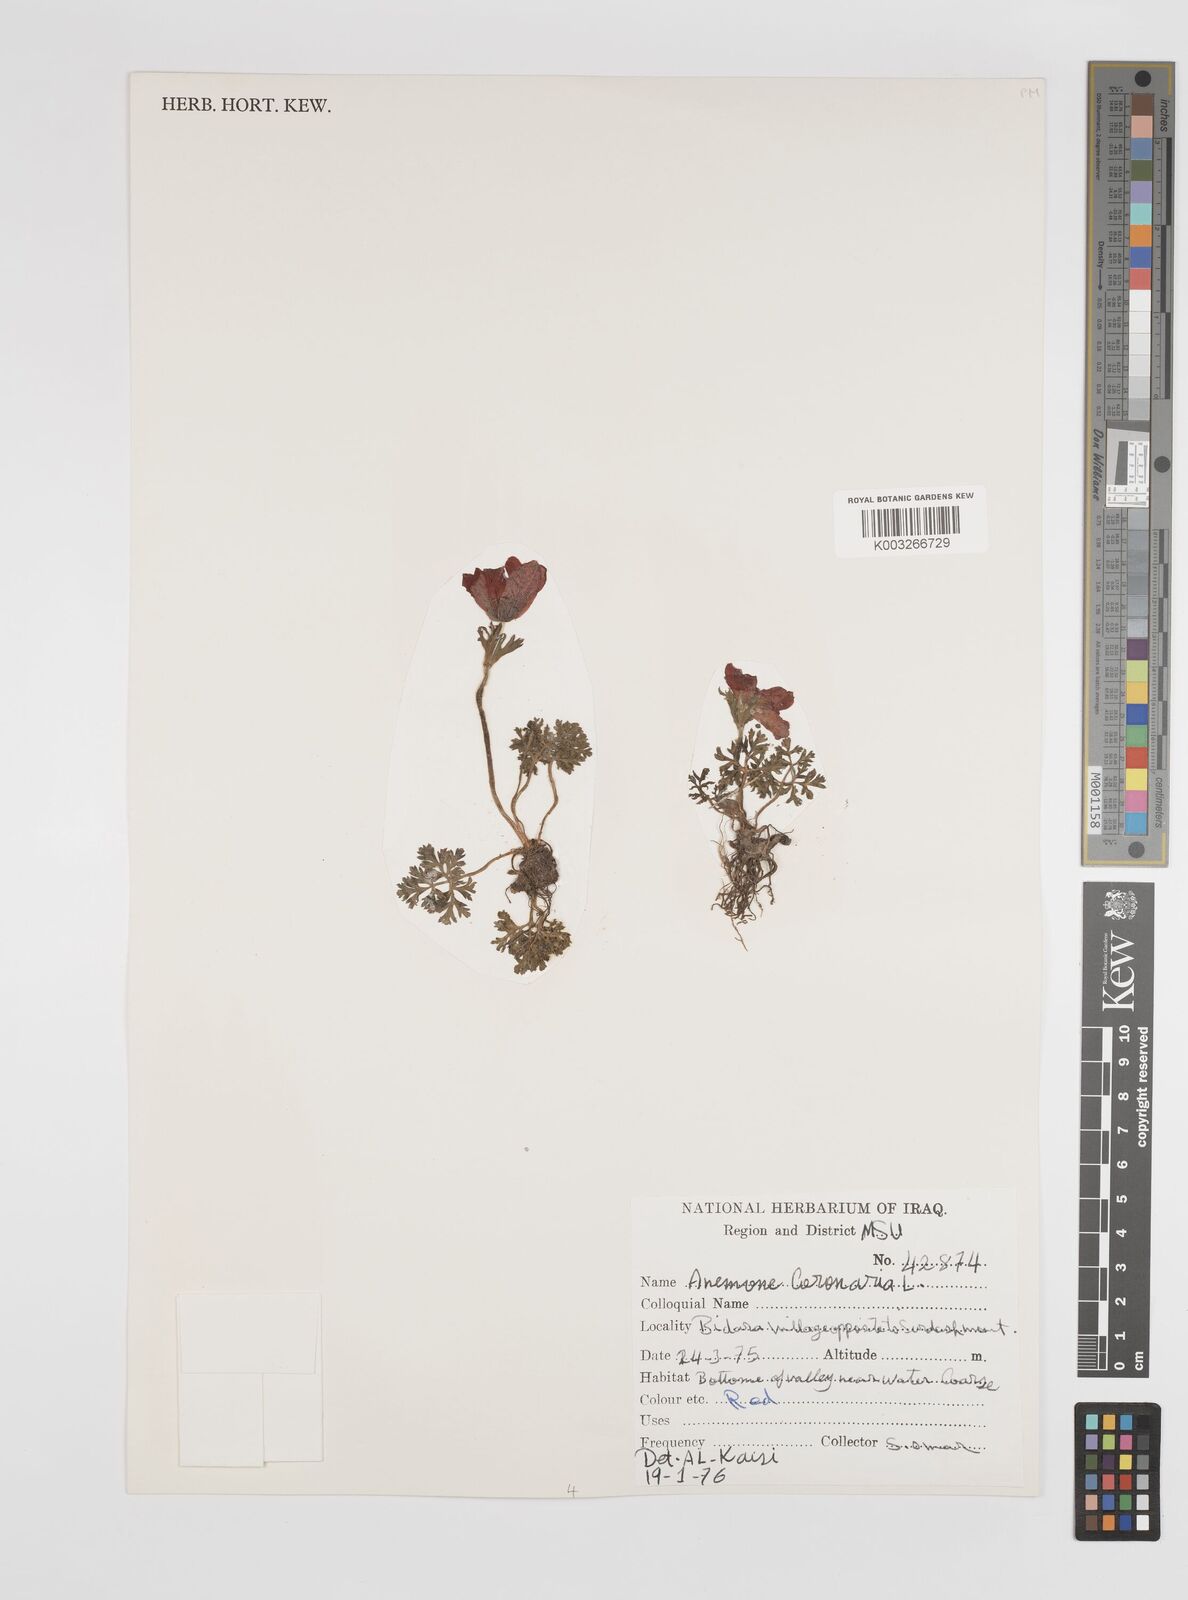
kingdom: Plantae
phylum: Tracheophyta
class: Magnoliopsida
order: Ranunculales
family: Ranunculaceae
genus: Anemone
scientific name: Anemone coronaria
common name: Poppy anemone
